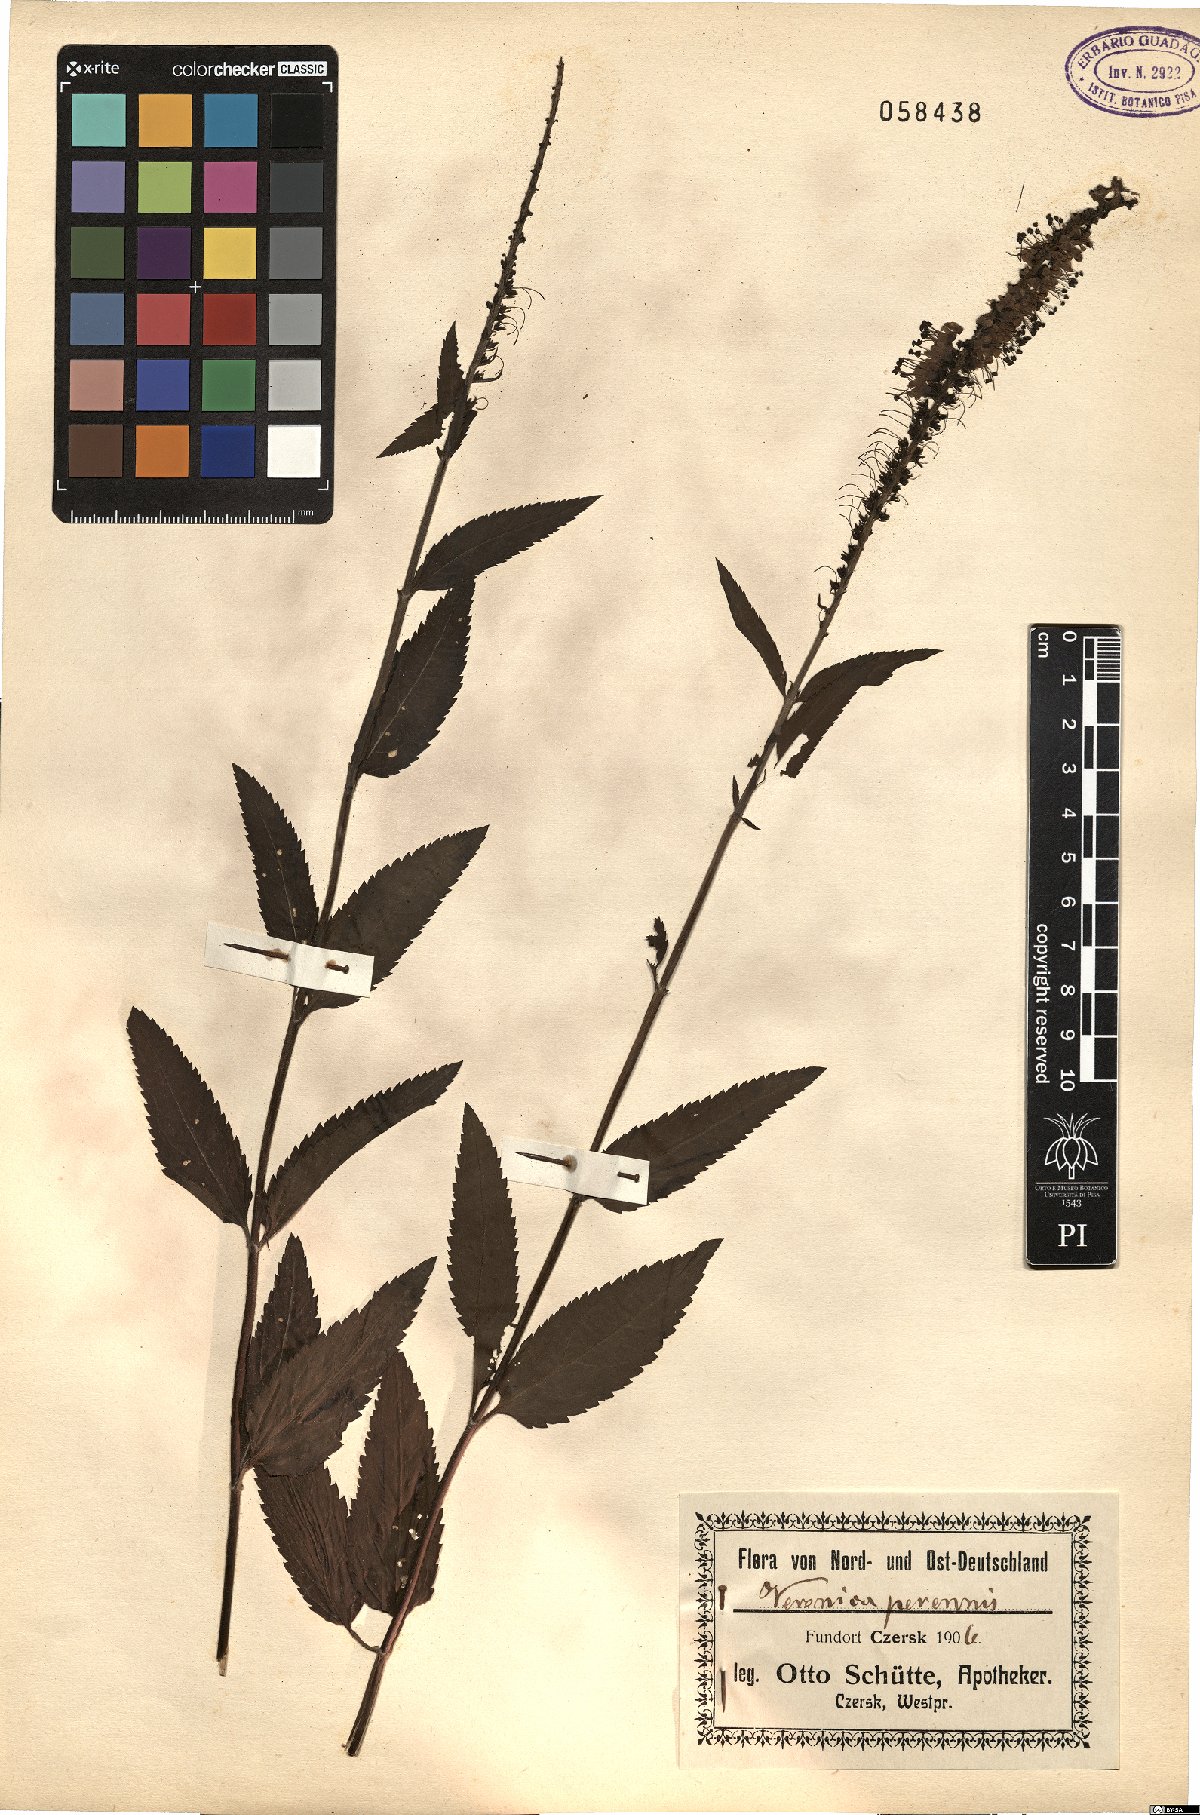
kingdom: Plantae
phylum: Tracheophyta
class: Magnoliopsida
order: Lamiales
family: Scrophulariaceae
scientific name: Scrophulariaceae
